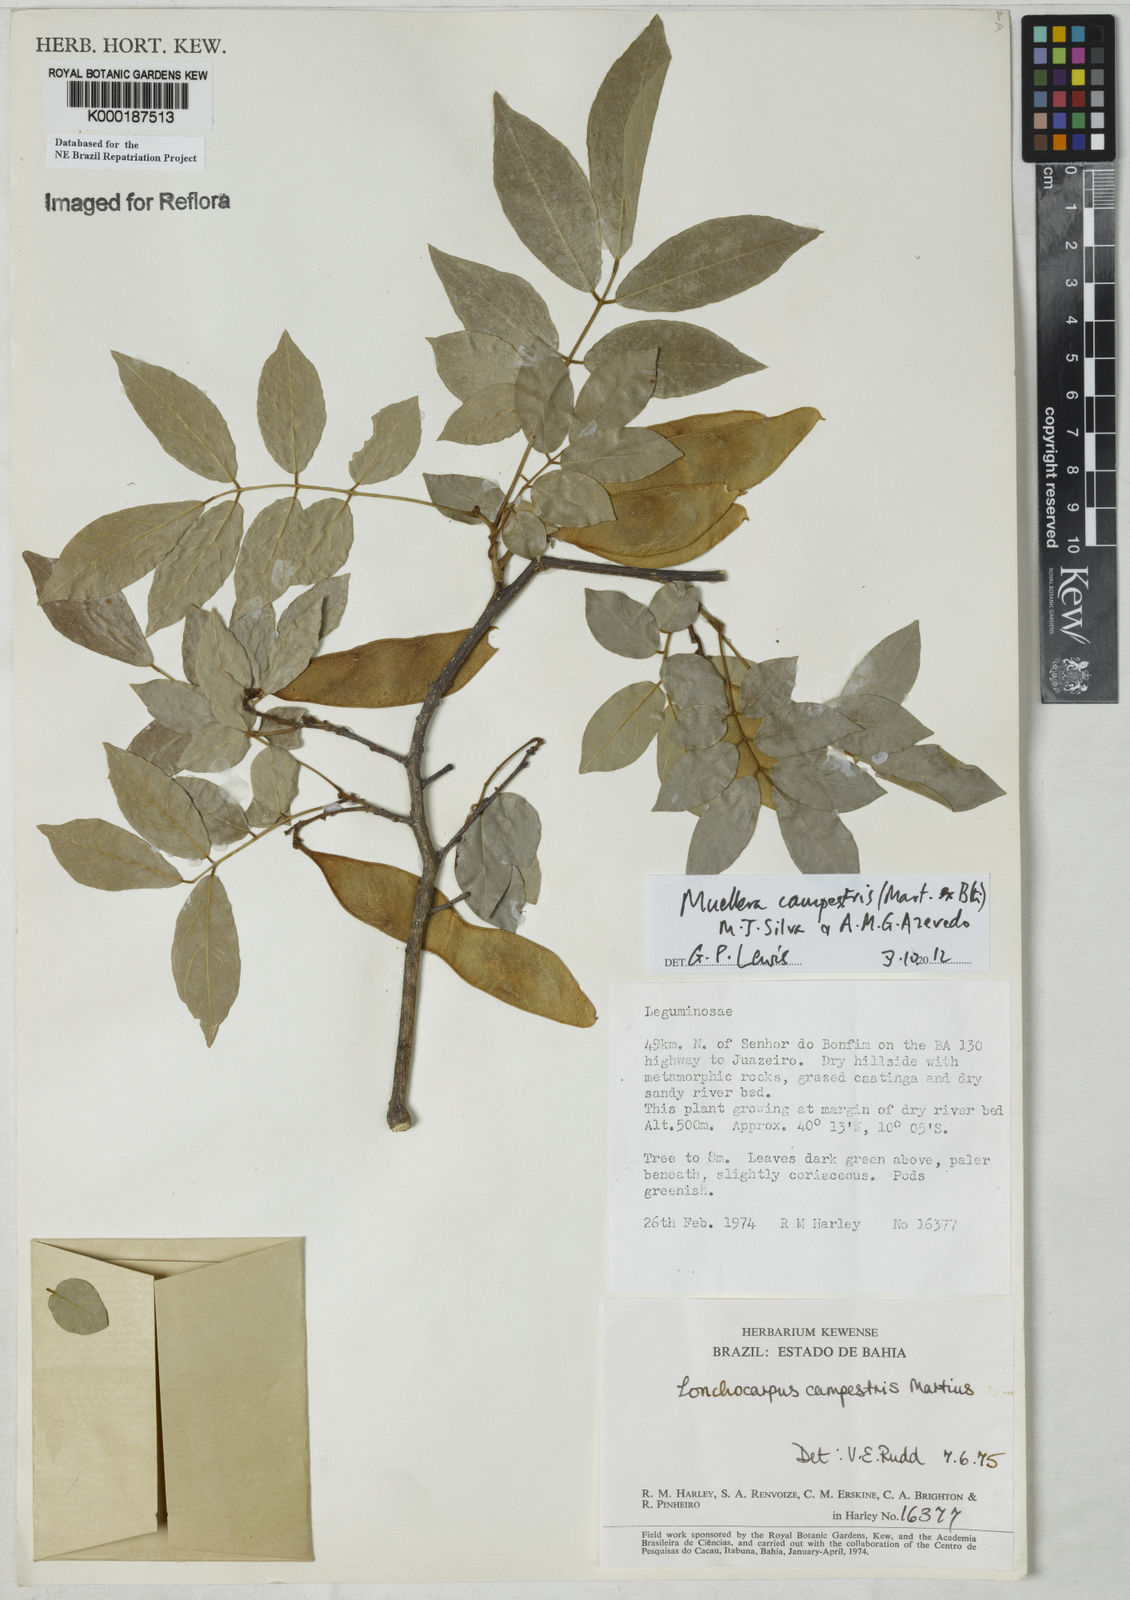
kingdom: Plantae
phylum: Tracheophyta
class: Magnoliopsida
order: Fabales
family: Fabaceae
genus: Muellera
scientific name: Muellera campestris
